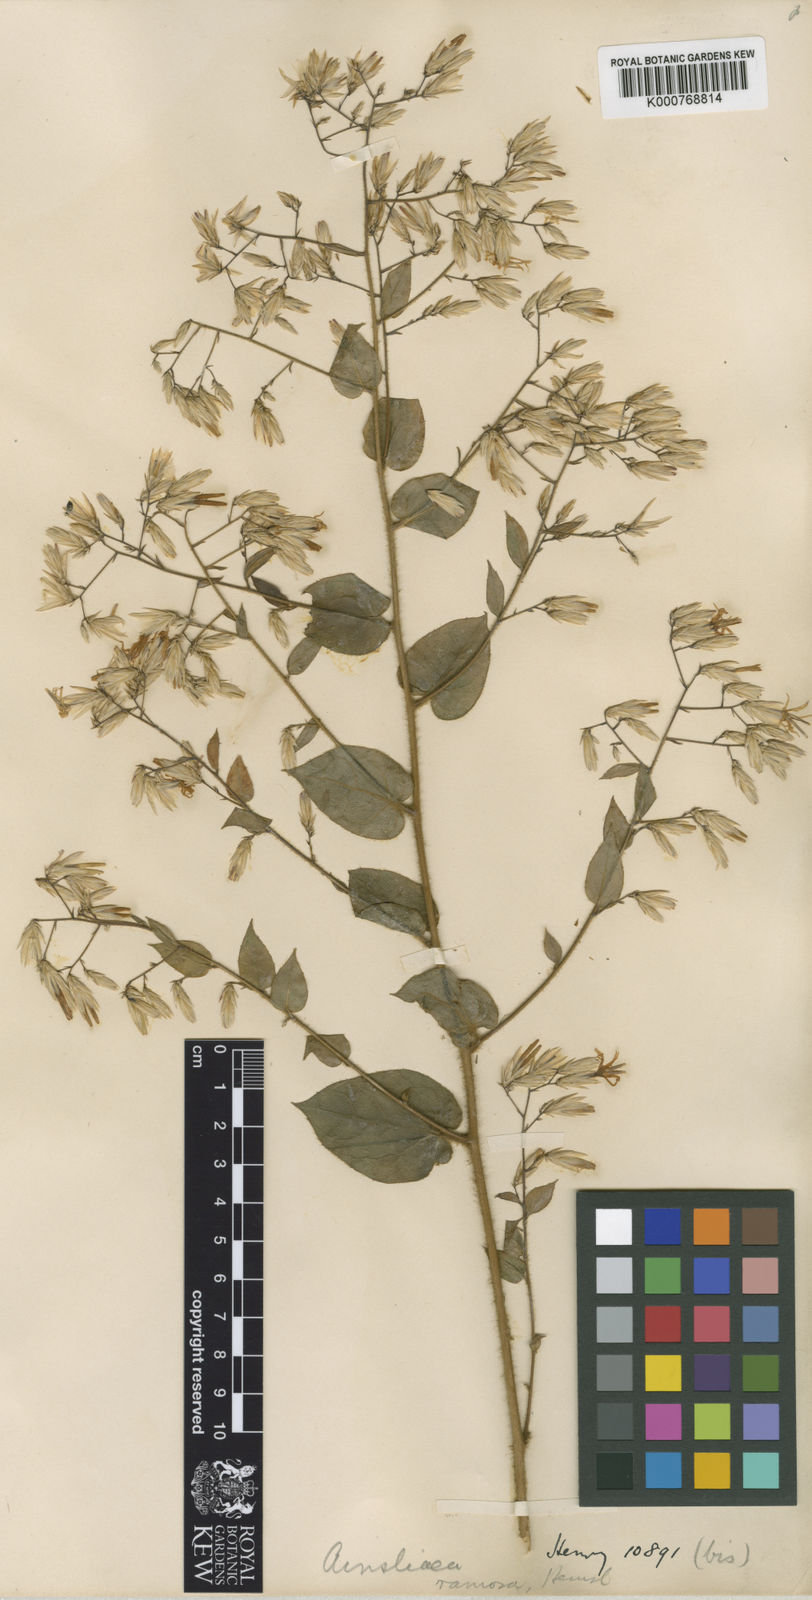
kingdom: Plantae
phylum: Tracheophyta
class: Magnoliopsida
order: Asterales
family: Asteraceae
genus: Ainsliaea
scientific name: Ainsliaea elegans
